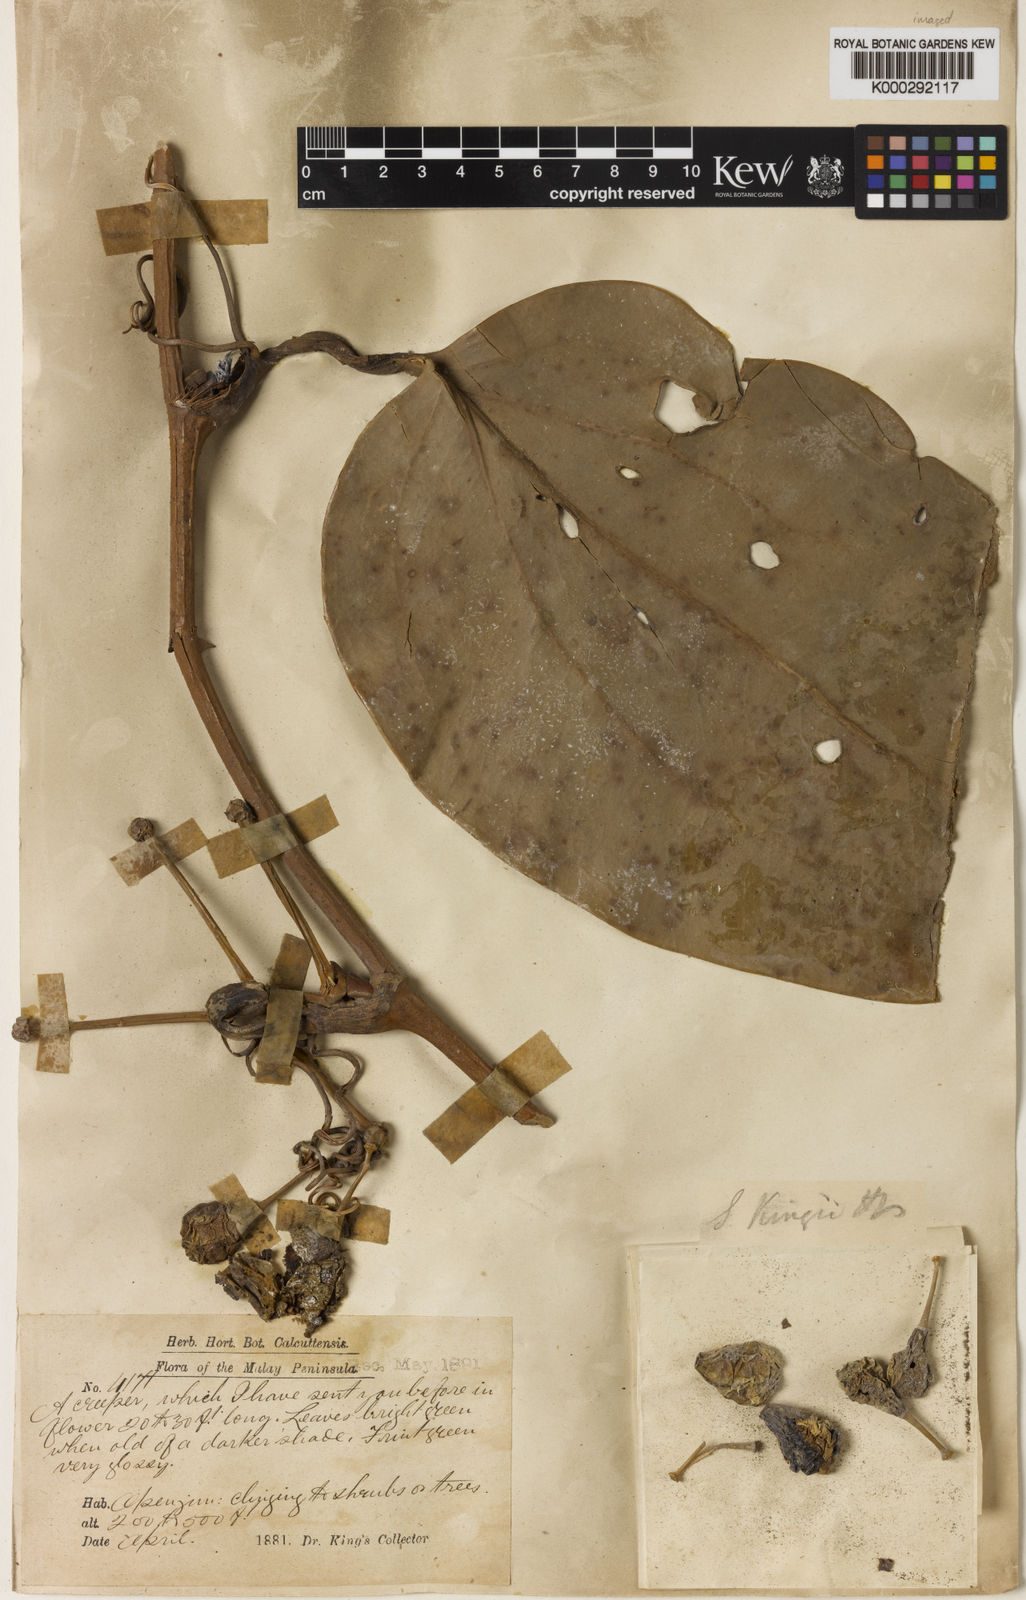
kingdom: Plantae
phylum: Tracheophyta
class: Liliopsida
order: Liliales
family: Smilacaceae
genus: Smilax
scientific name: Smilax kingii
